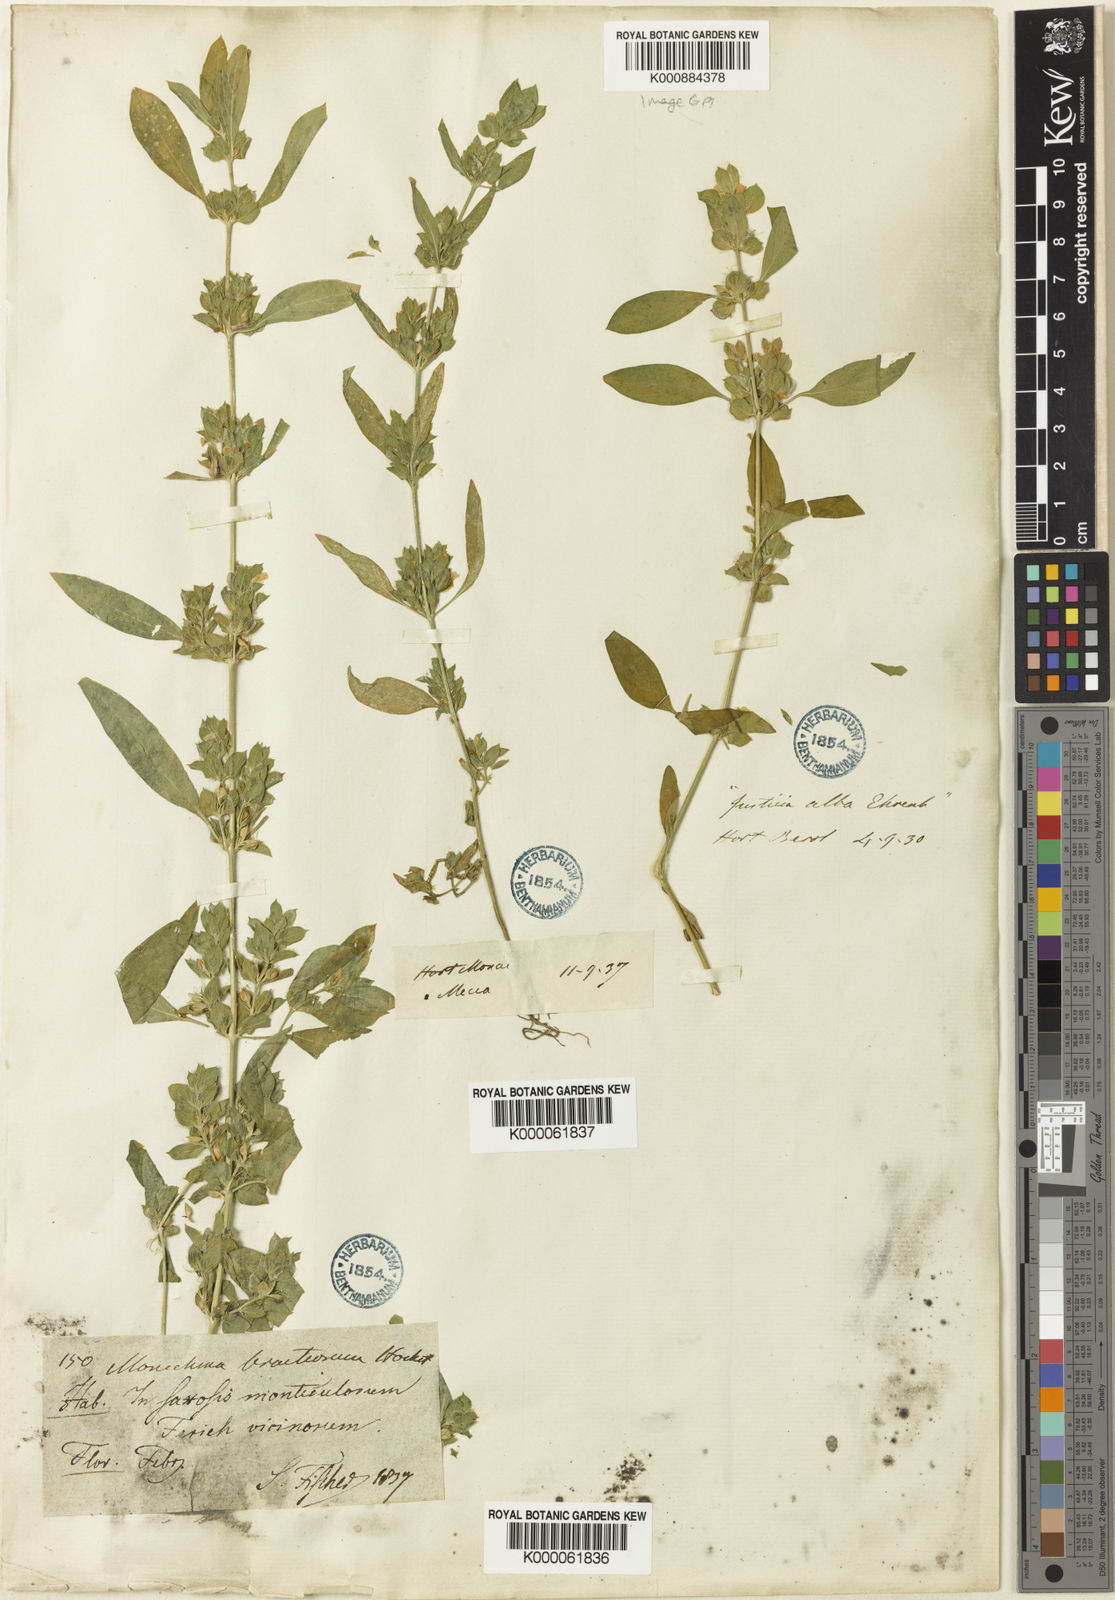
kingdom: Plantae
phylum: Tracheophyta
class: Magnoliopsida
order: Lamiales
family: Acanthaceae
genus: Monechma
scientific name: Monechma debile
